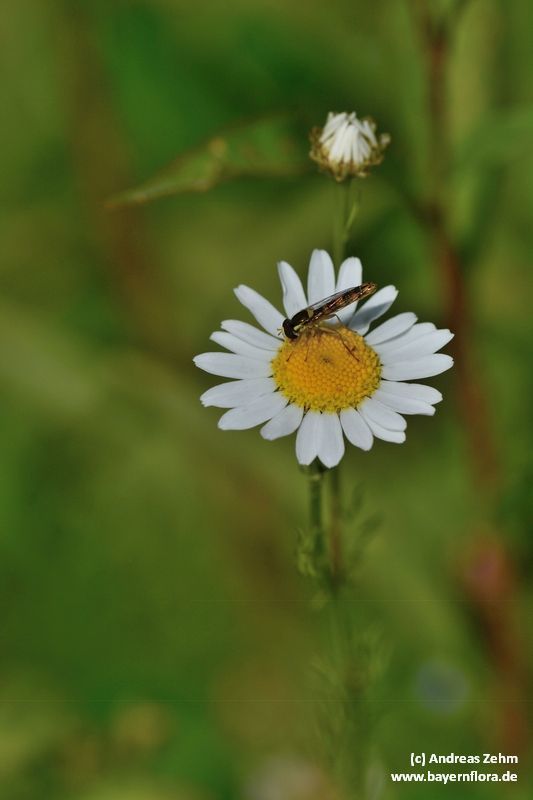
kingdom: Plantae
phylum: Tracheophyta
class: Magnoliopsida
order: Asterales
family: Asteraceae
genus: Tripleurospermum
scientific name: Tripleurospermum inodorum
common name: Scentless mayweed
